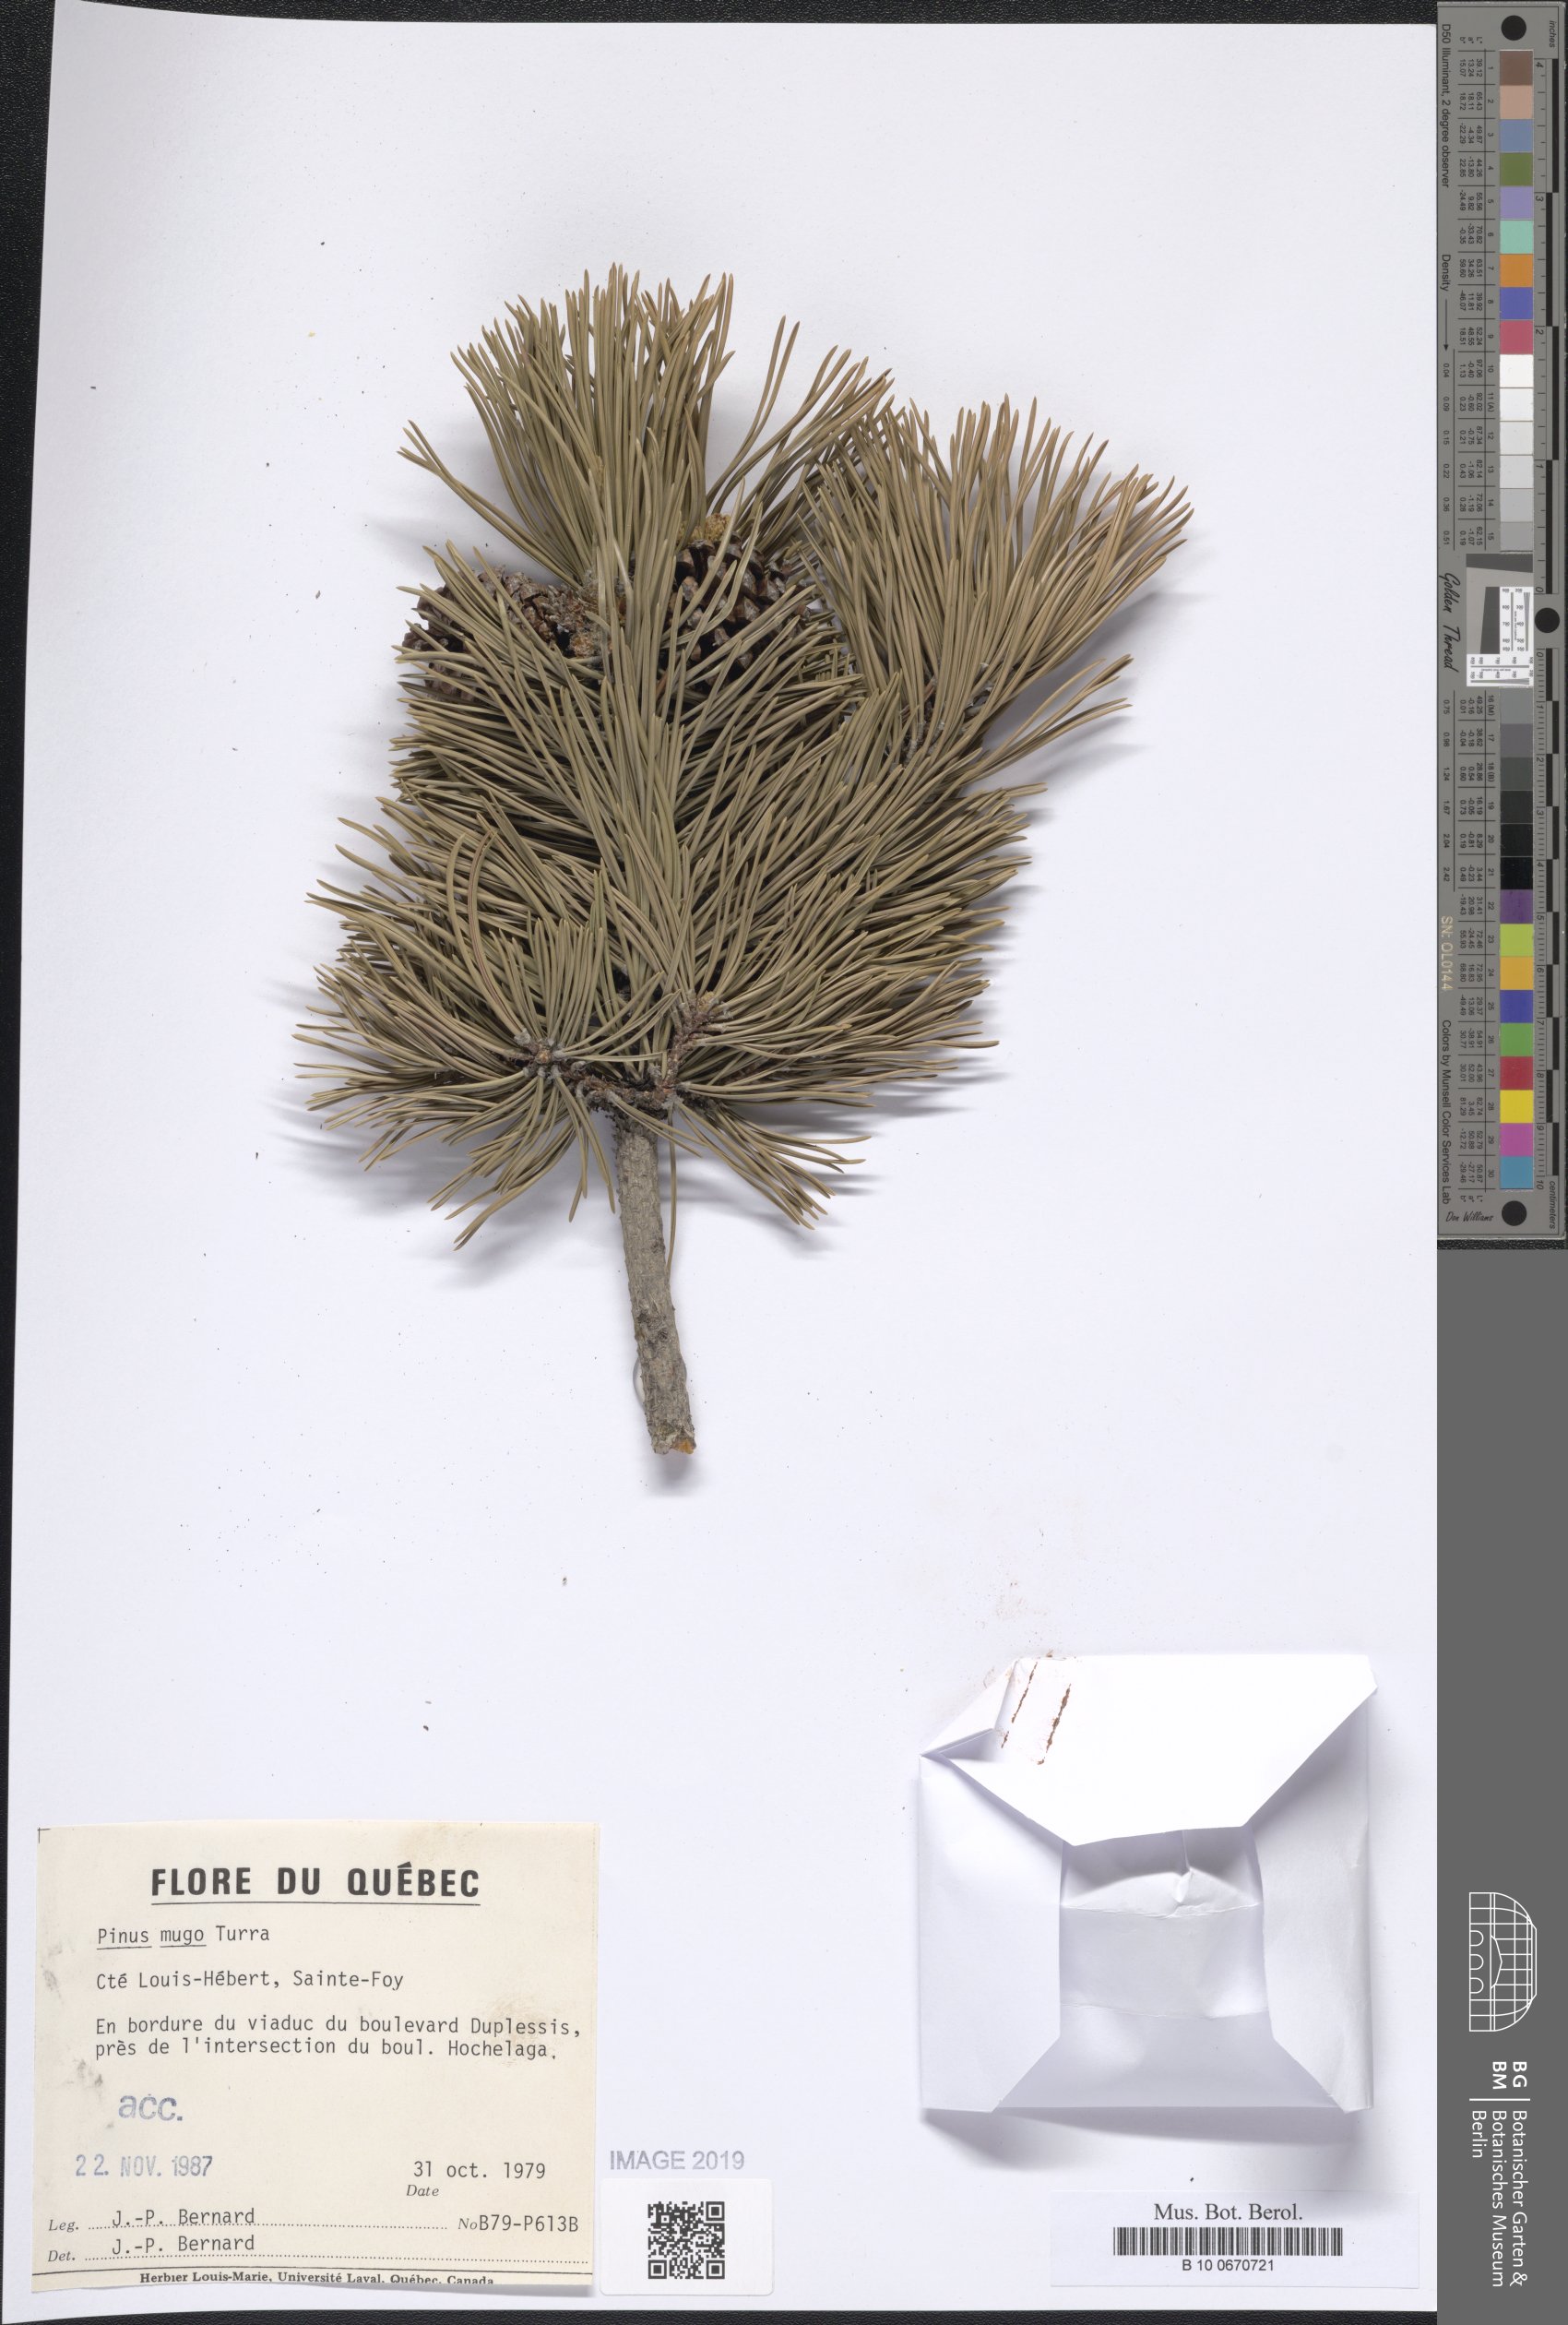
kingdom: Plantae
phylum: Tracheophyta
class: Pinopsida
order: Pinales
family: Pinaceae
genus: Pinus
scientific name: Pinus mugo
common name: Mugo pine
